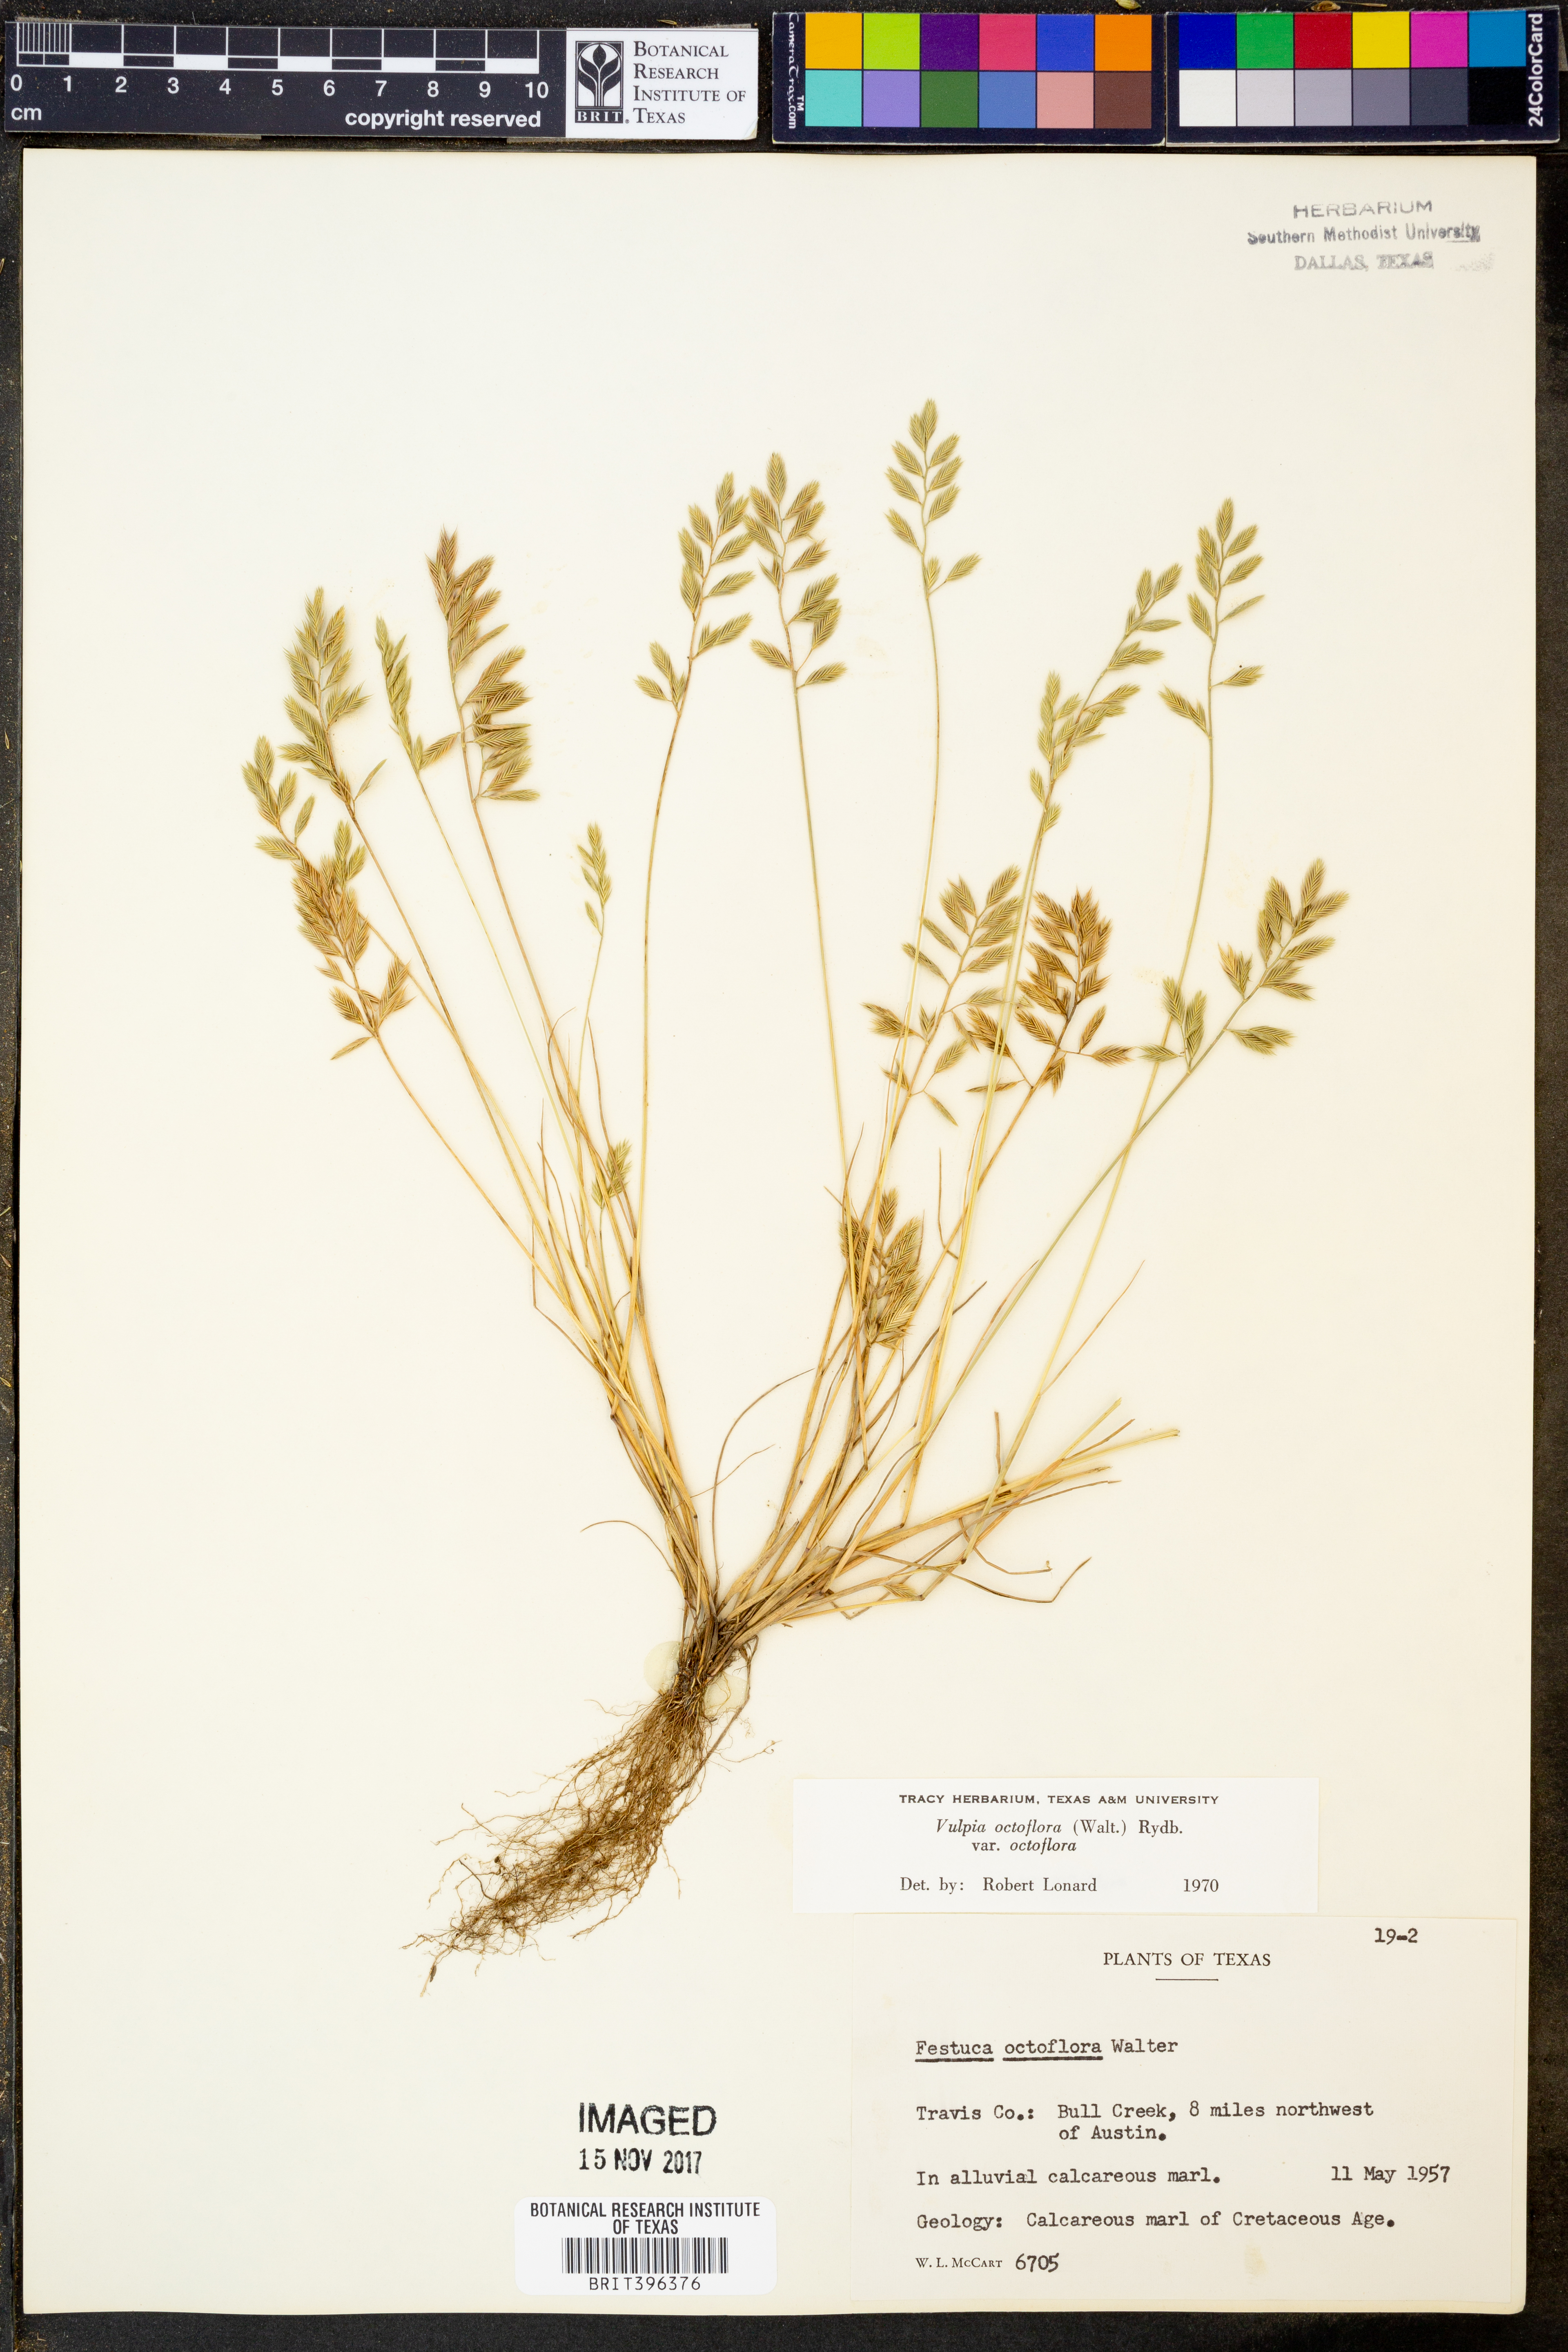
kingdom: Plantae
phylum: Tracheophyta
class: Liliopsida
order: Poales
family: Poaceae
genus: Festuca
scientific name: Festuca octoflora
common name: Sixweeks grass
